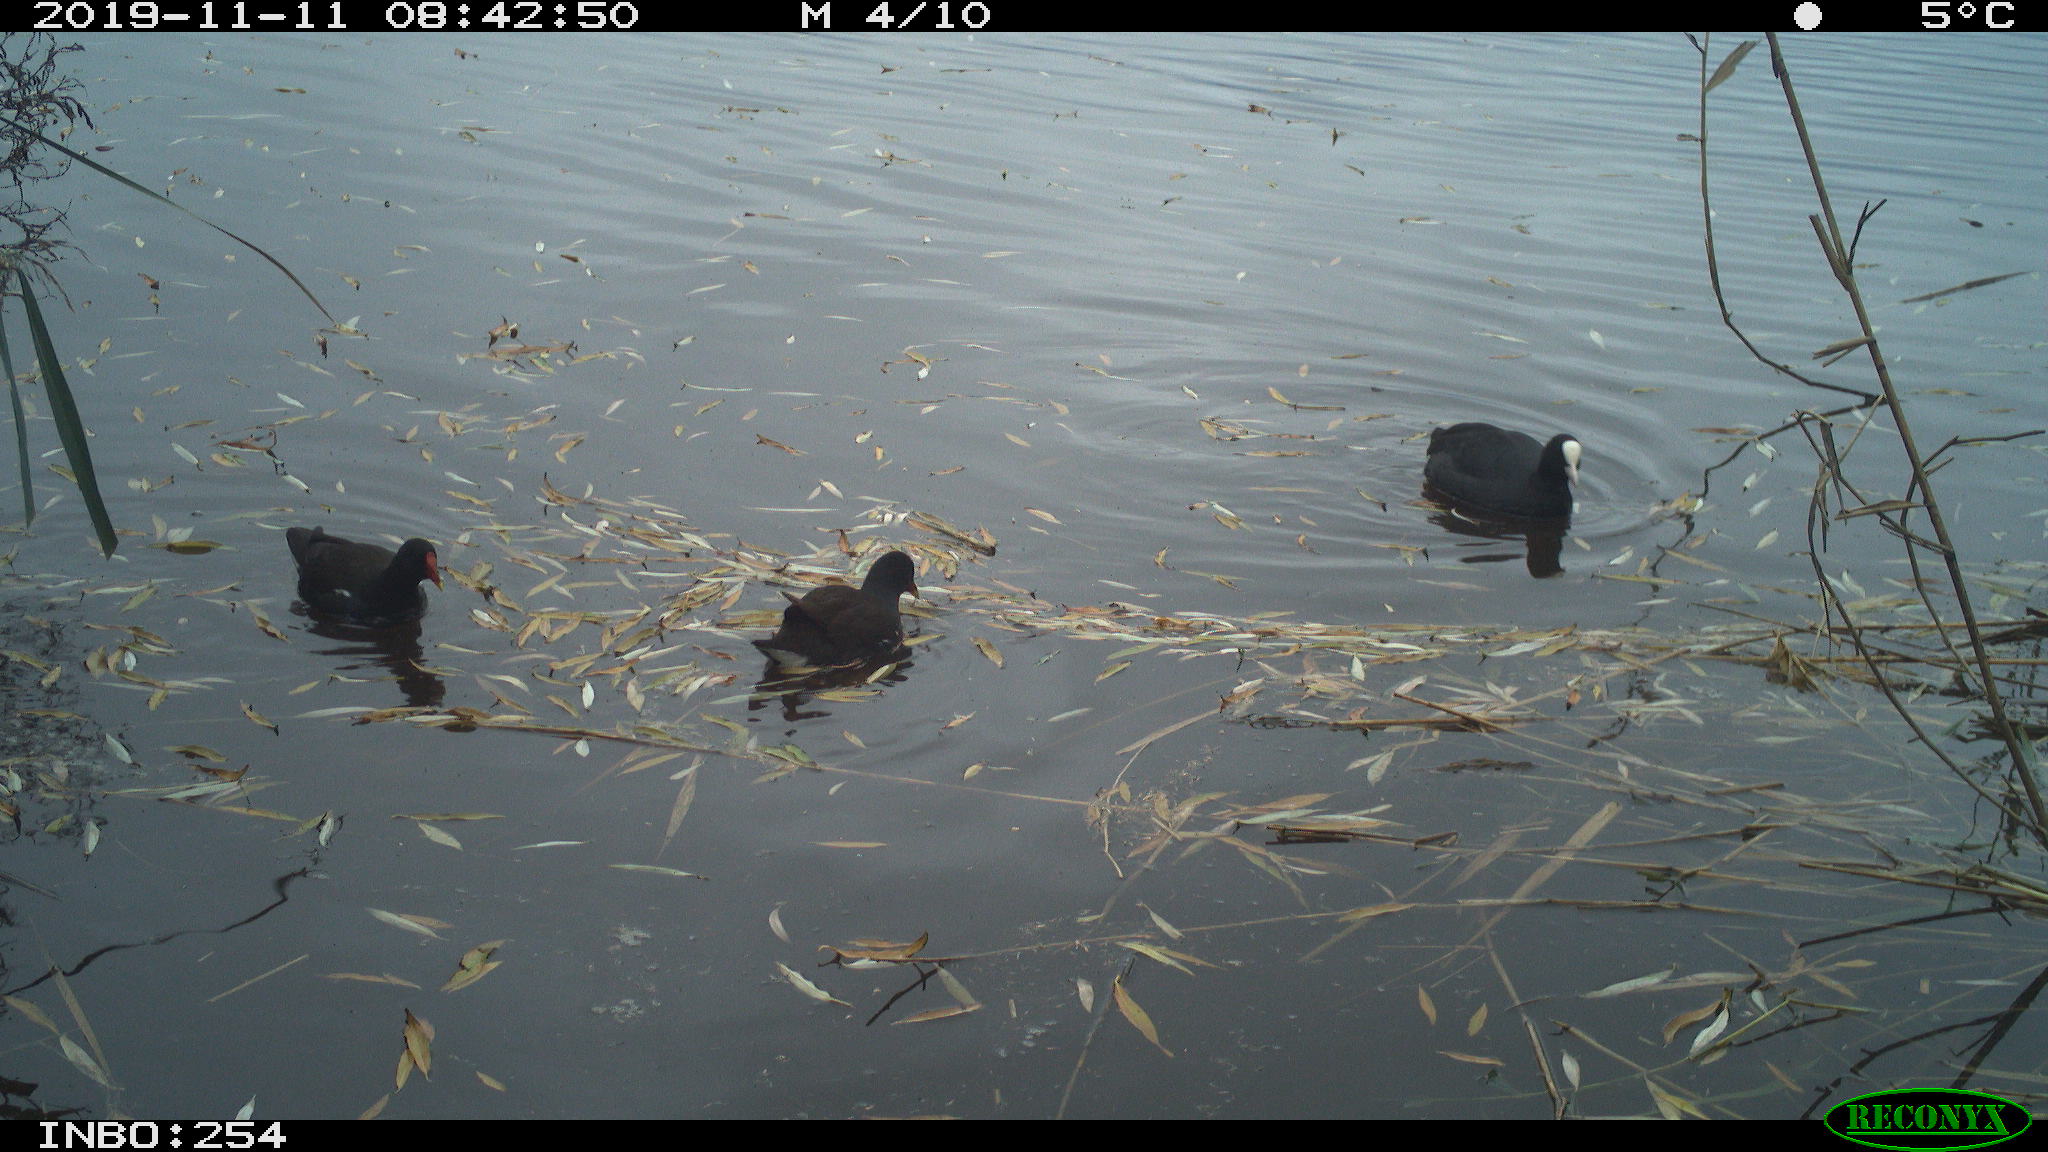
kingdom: Animalia
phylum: Chordata
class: Aves
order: Gruiformes
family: Rallidae
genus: Fulica
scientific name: Fulica atra
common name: Eurasian coot
